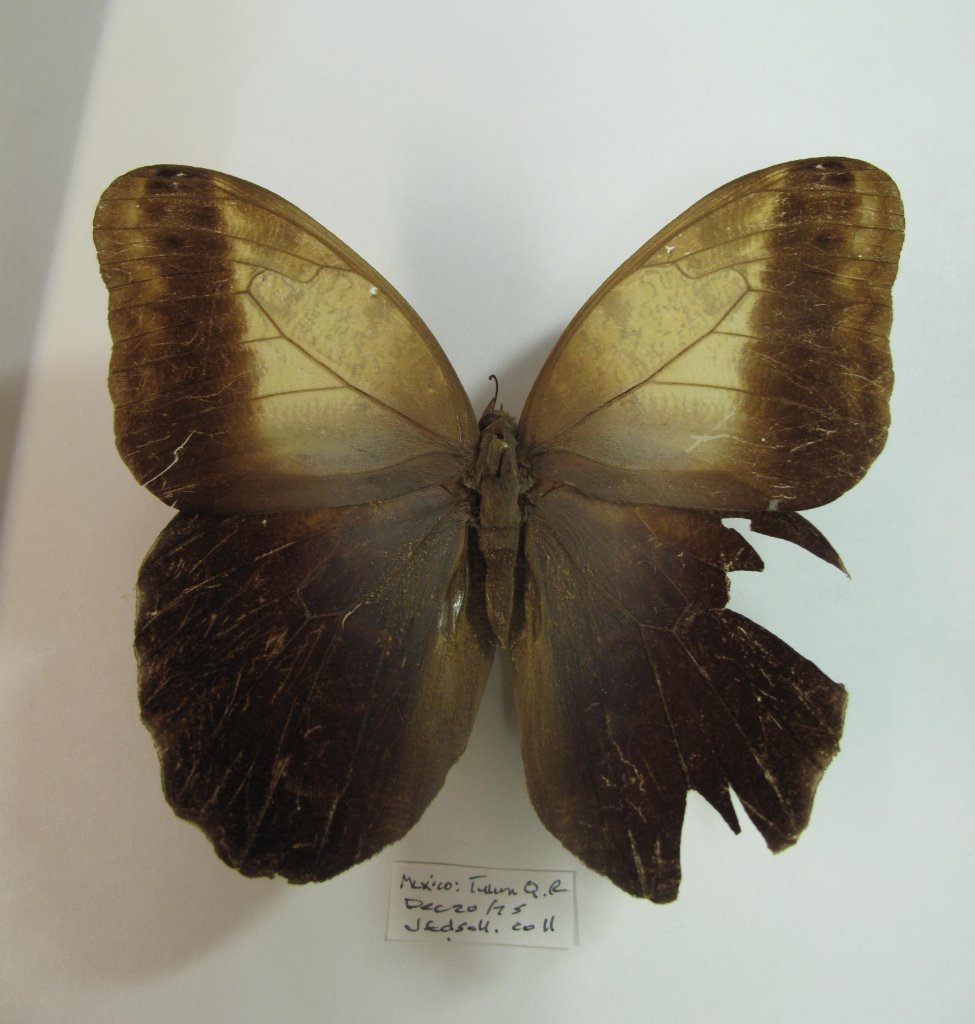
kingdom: Animalia
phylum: Arthropoda
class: Insecta
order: Lepidoptera
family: Nymphalidae
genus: Caligo
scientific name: Caligo telamonius
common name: Pale Owl-Butterfly
